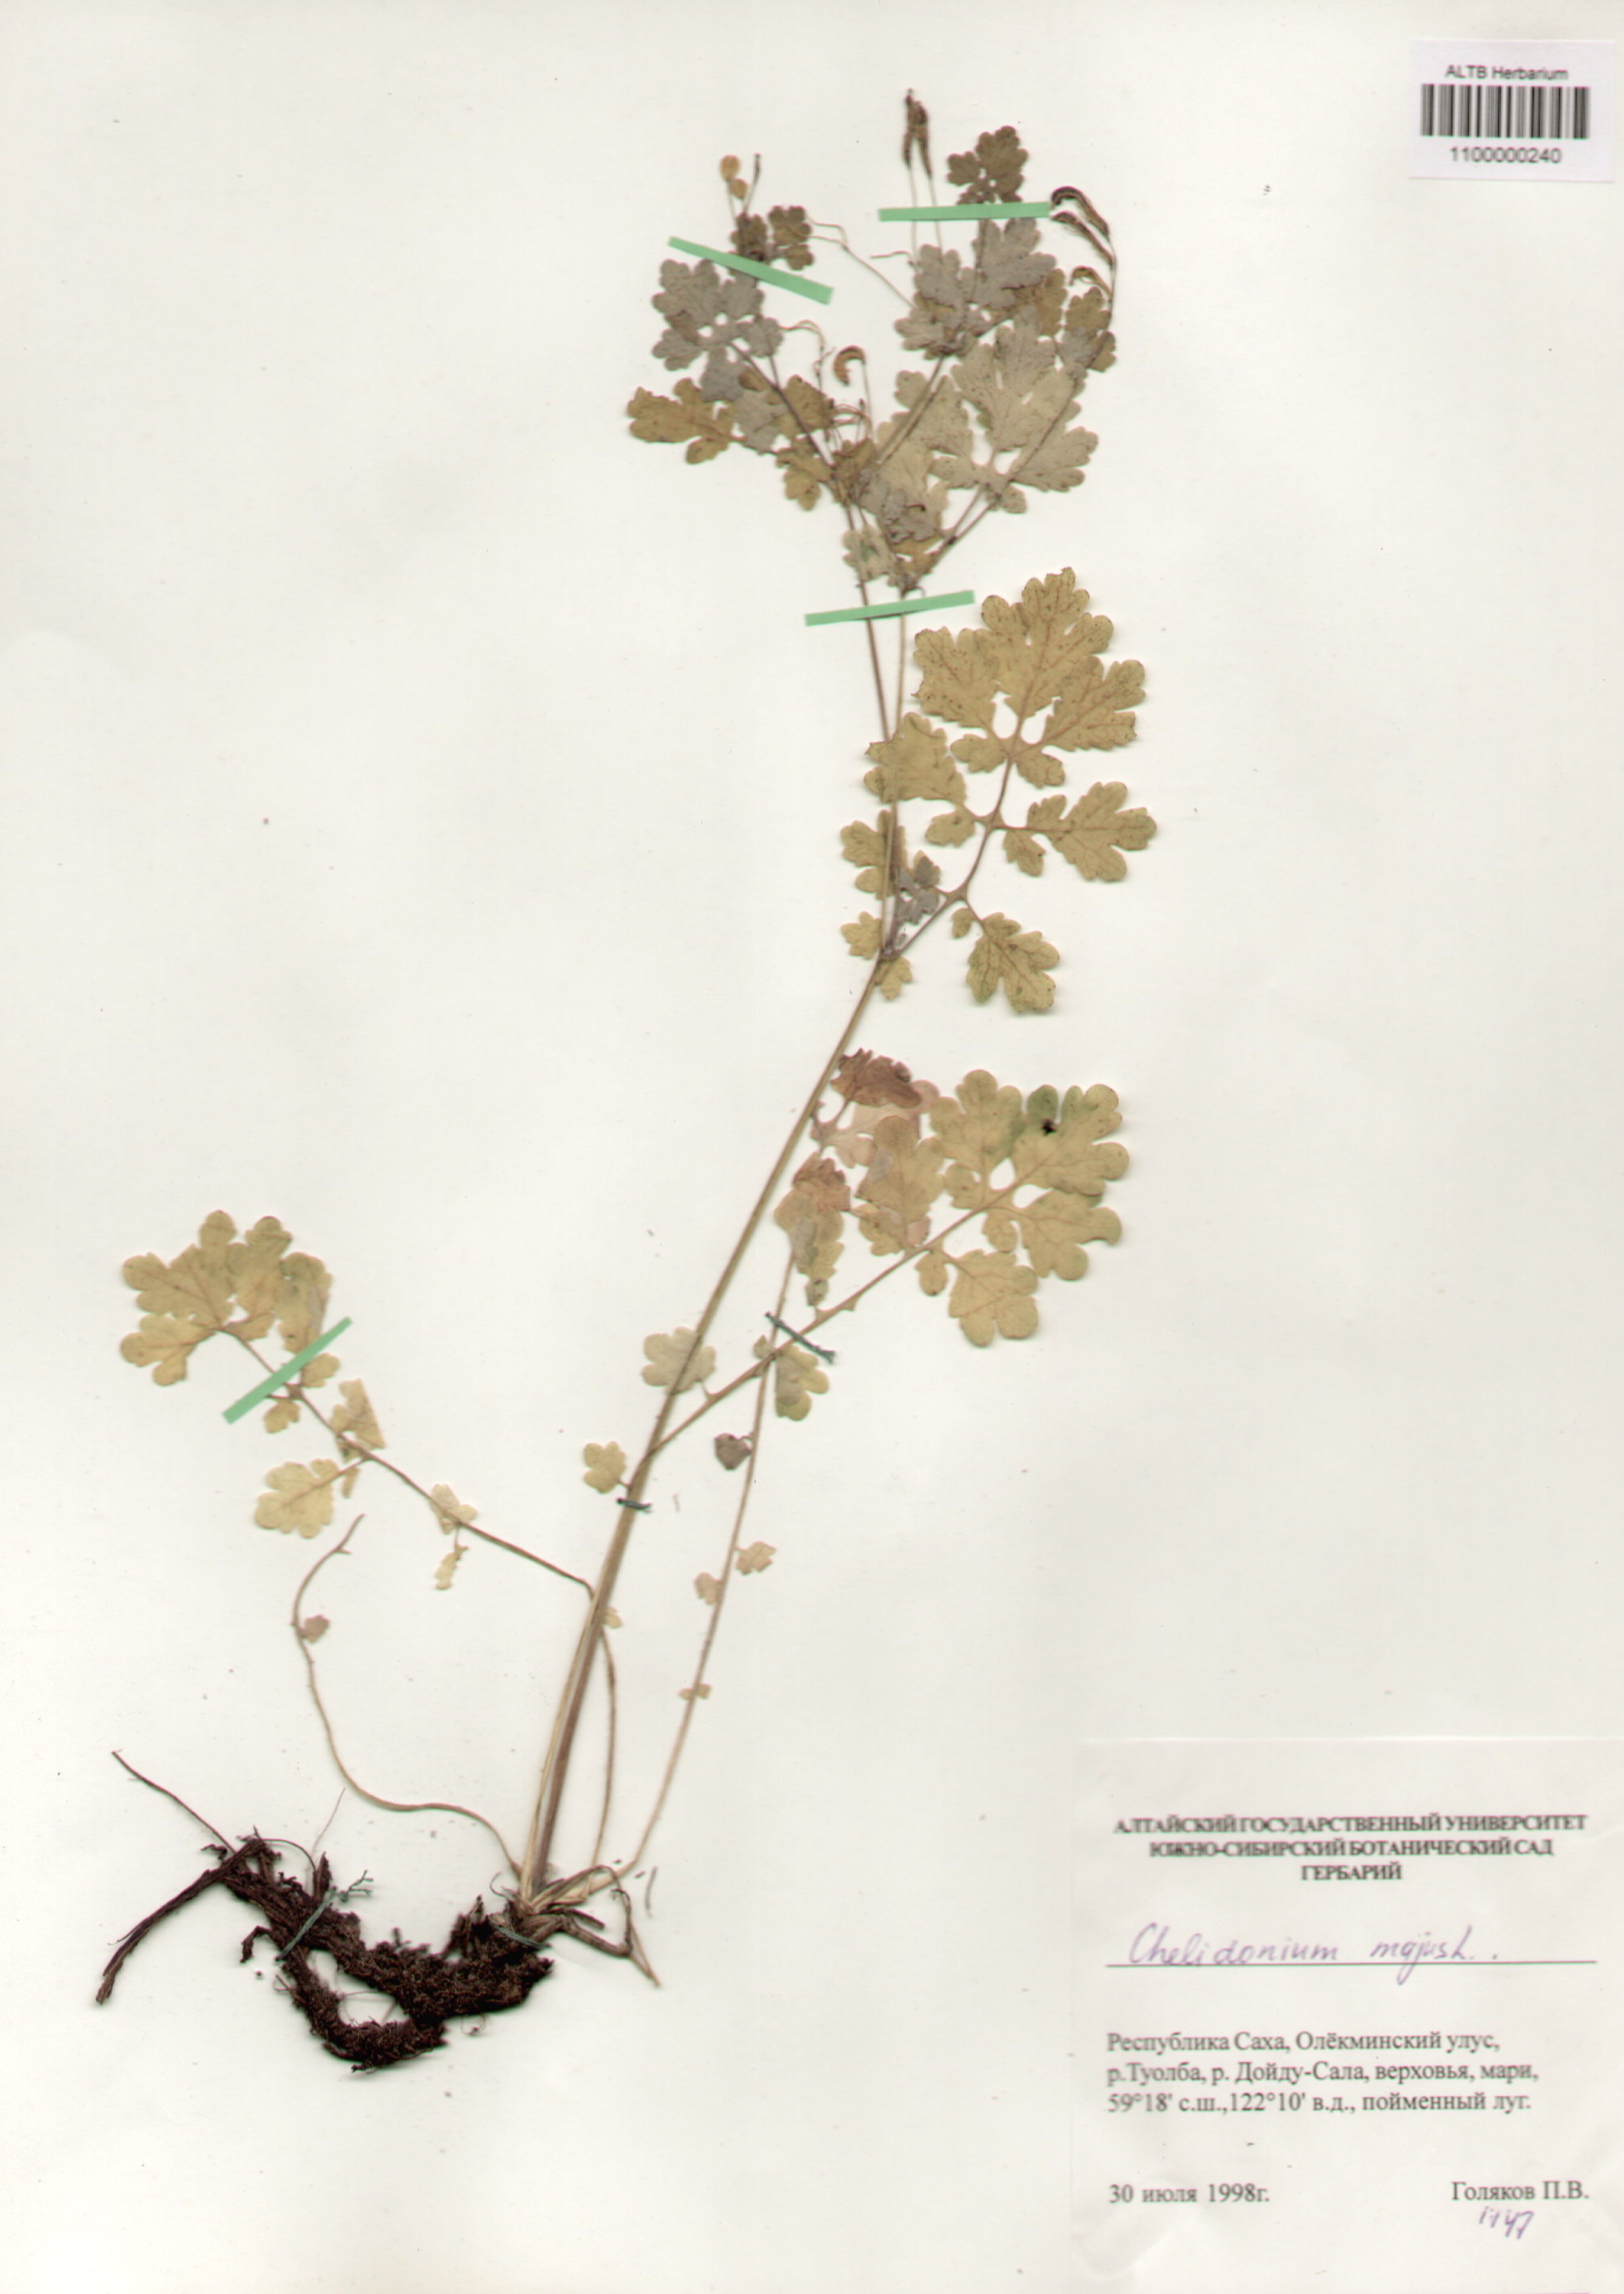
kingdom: Plantae
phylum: Tracheophyta
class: Magnoliopsida
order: Ranunculales
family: Papaveraceae
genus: Chelidonium
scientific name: Chelidonium majus
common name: Greater celandine
